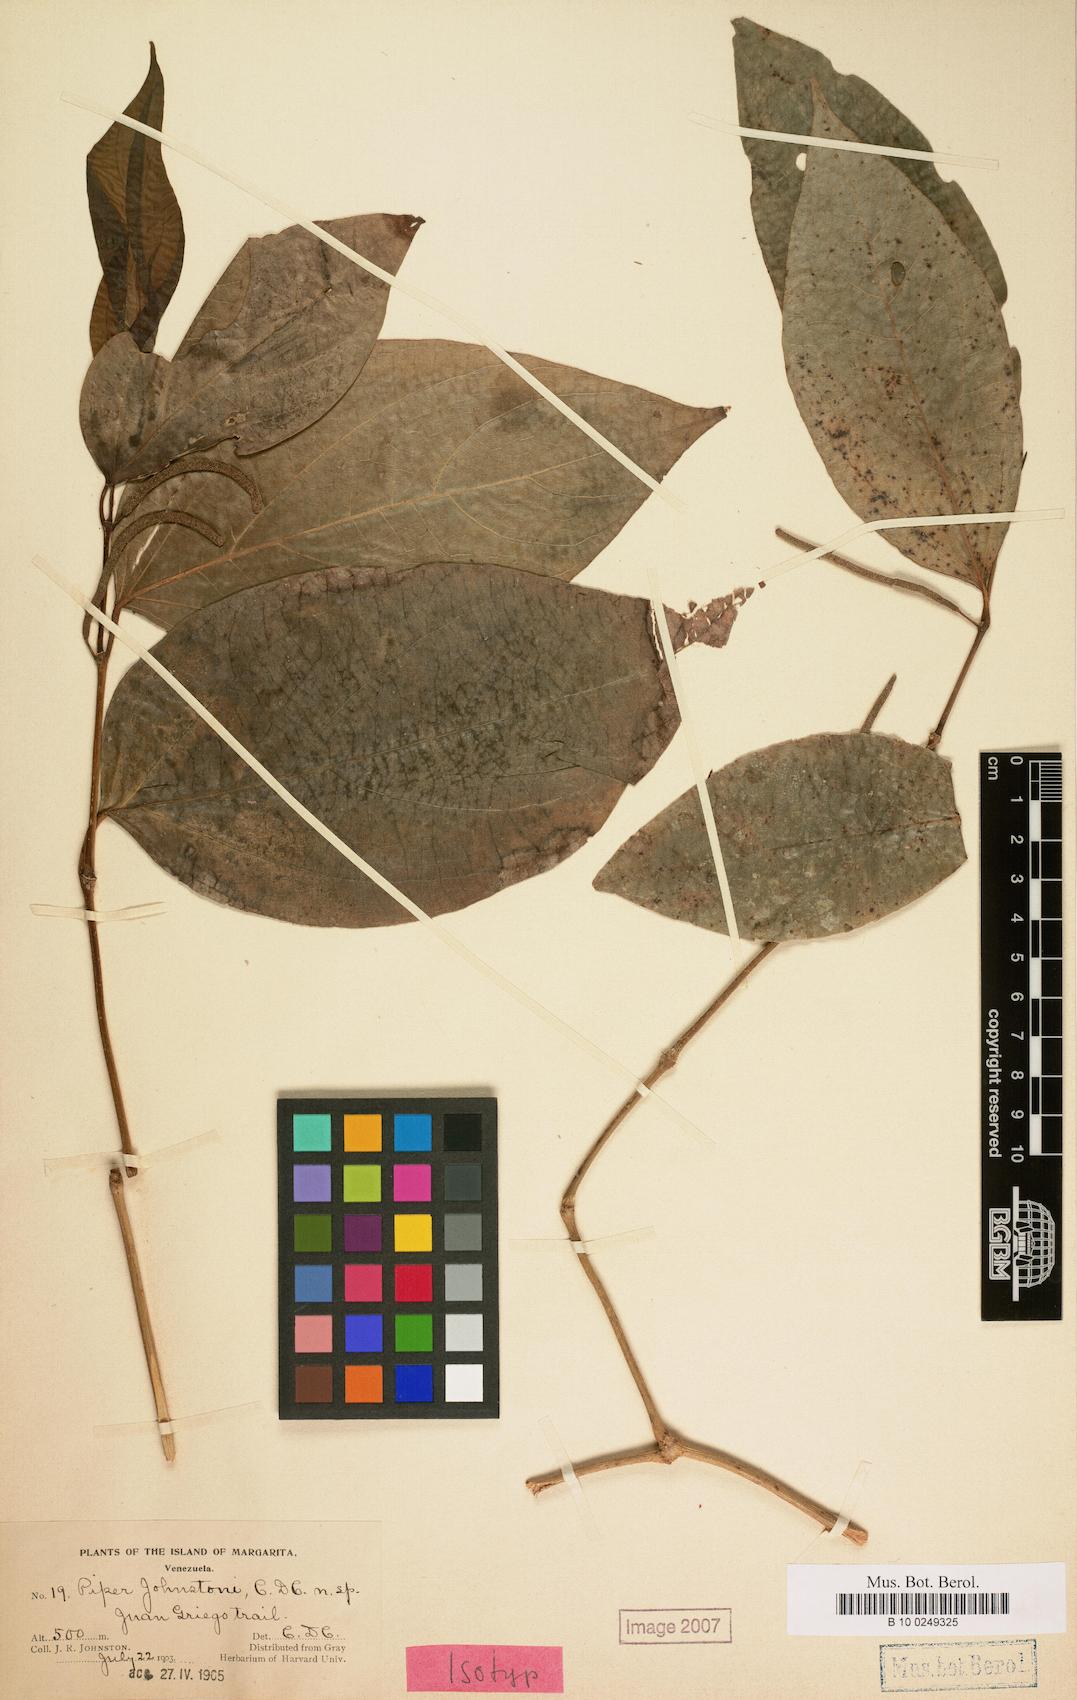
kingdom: Plantae
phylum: Tracheophyta
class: Magnoliopsida
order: Piperales
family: Piperaceae
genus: Piper
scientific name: Piper aequale
